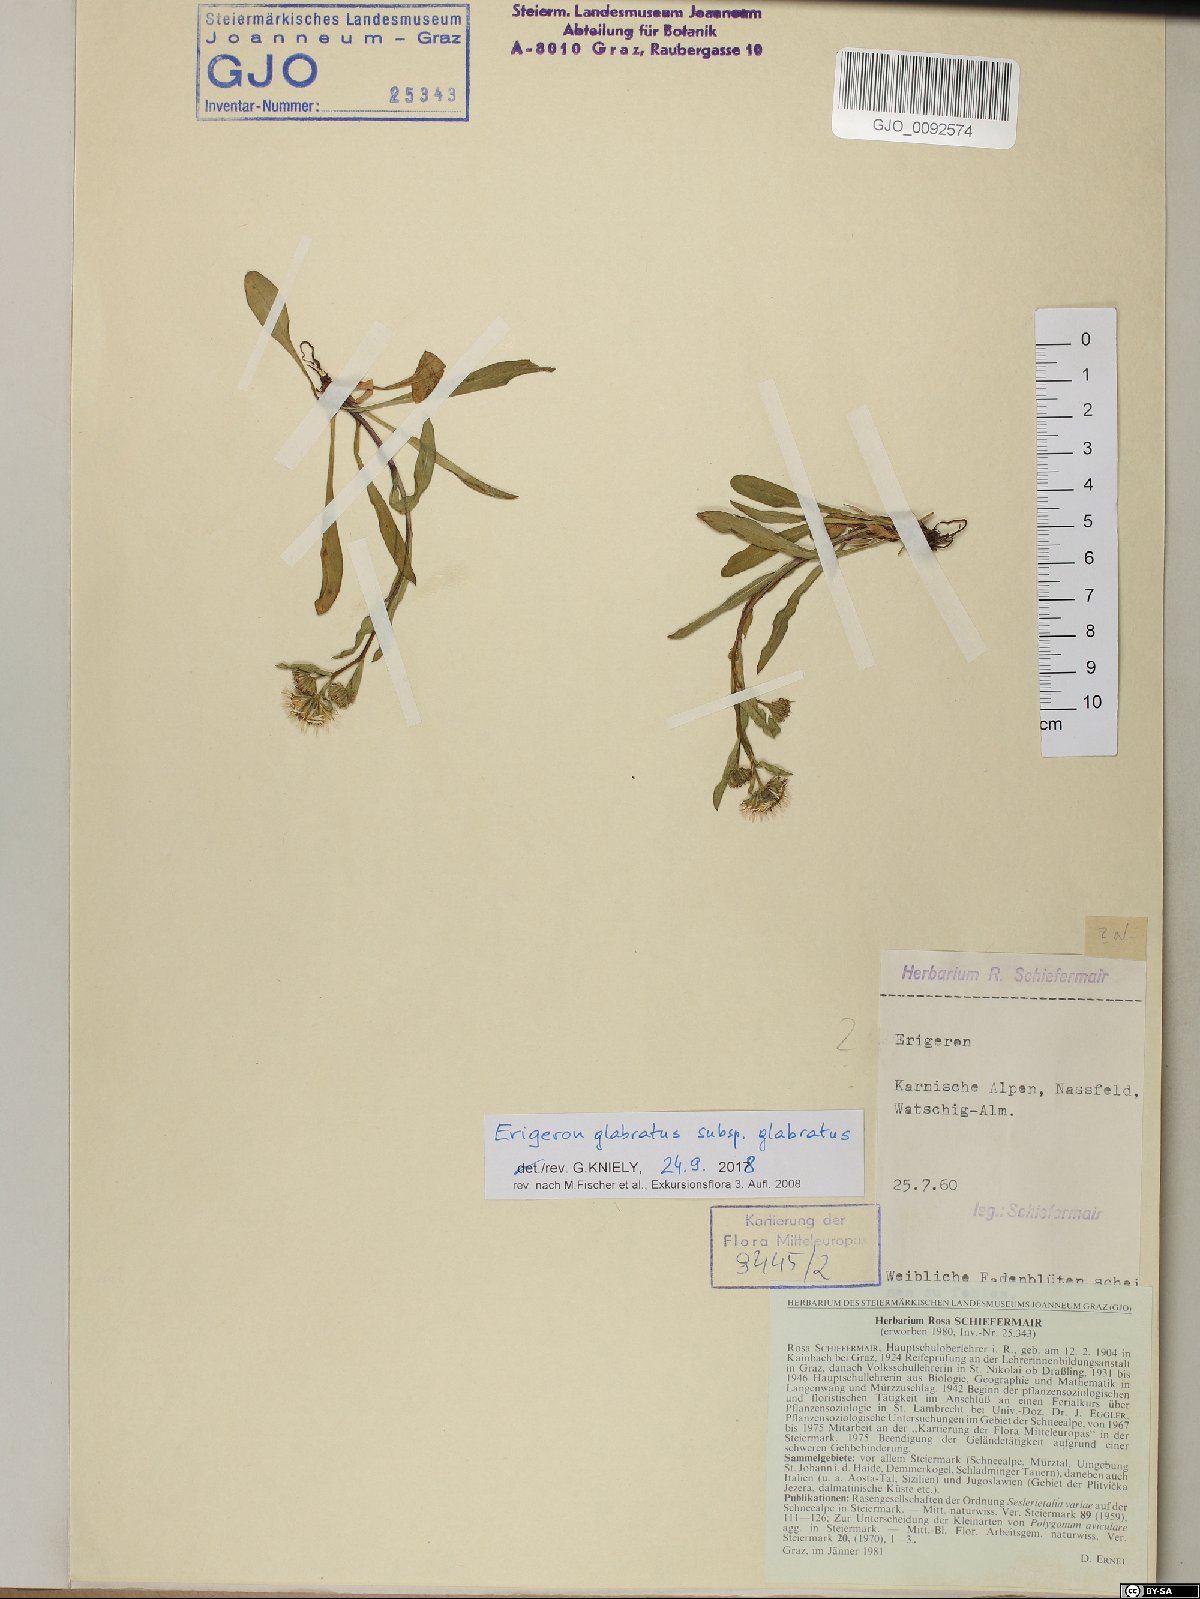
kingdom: Plantae
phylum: Tracheophyta
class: Magnoliopsida
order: Asterales
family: Asteraceae
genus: Erigeron
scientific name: Erigeron glabratus
